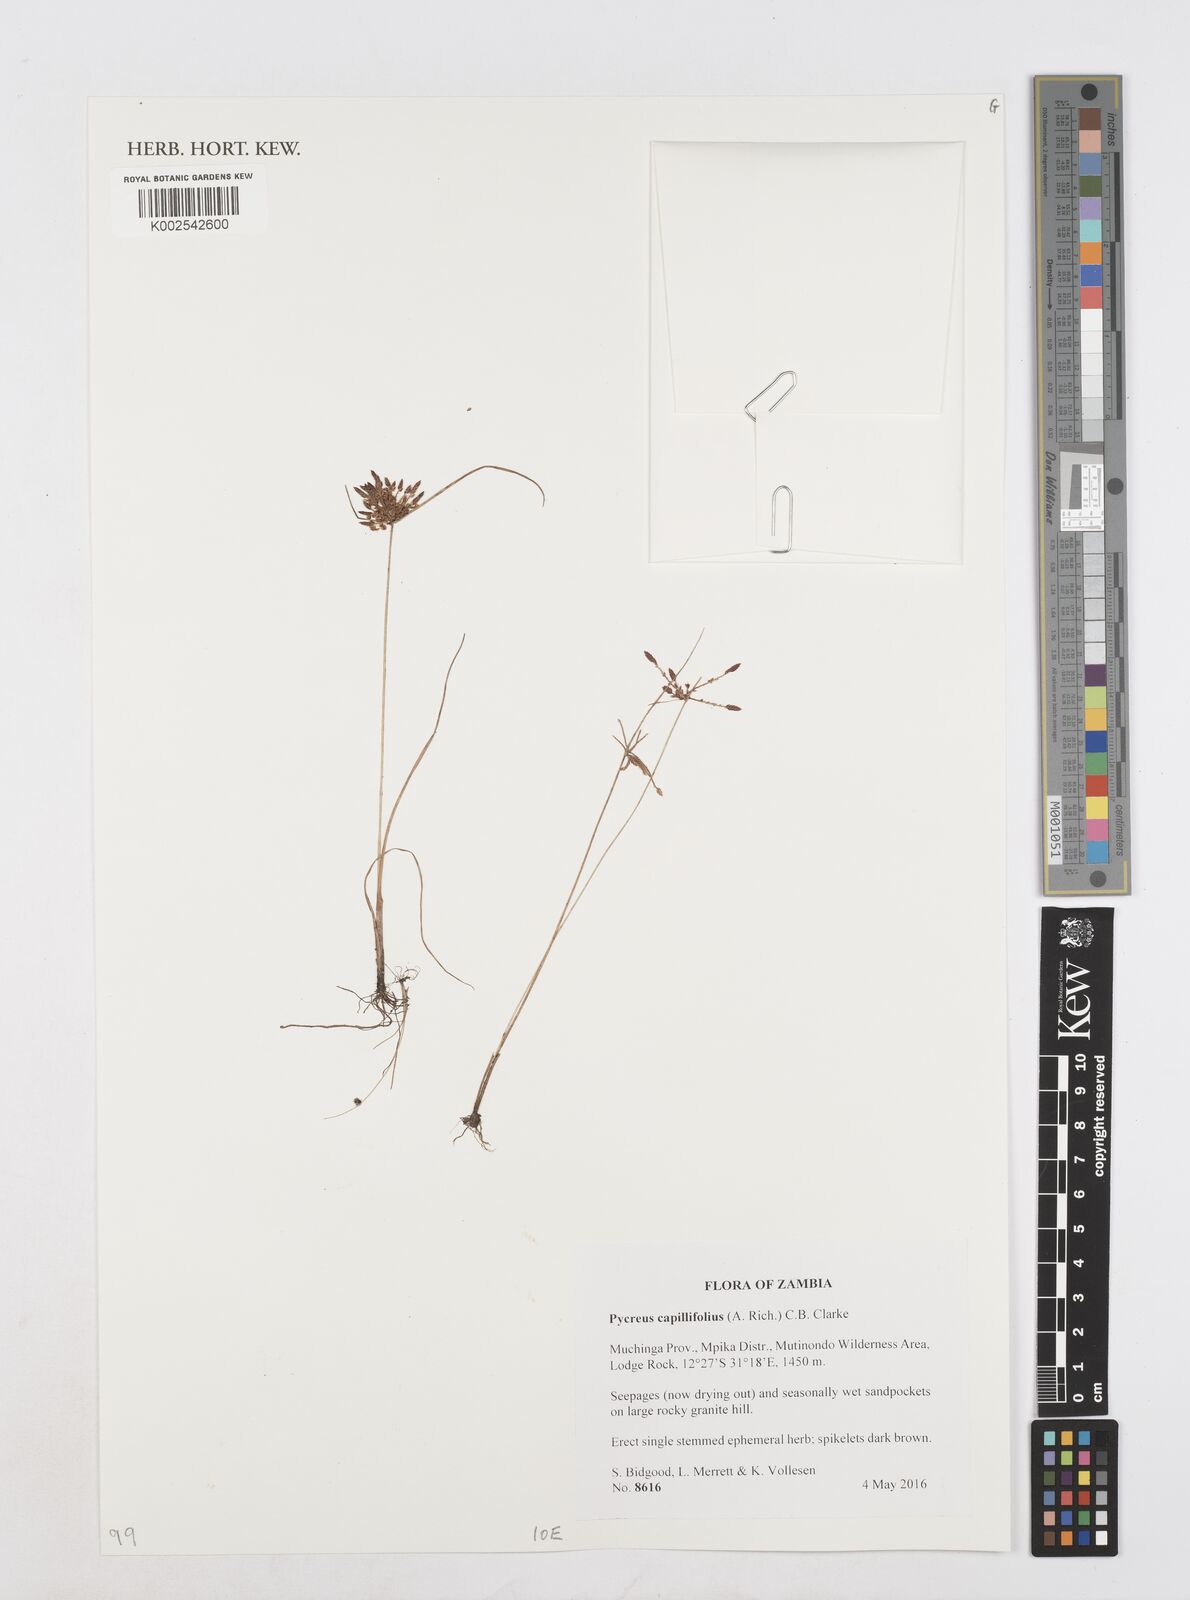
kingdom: Plantae
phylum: Tracheophyta
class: Liliopsida
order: Poales
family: Cyperaceae
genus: Cyperus
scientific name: Cyperus capillifolius
